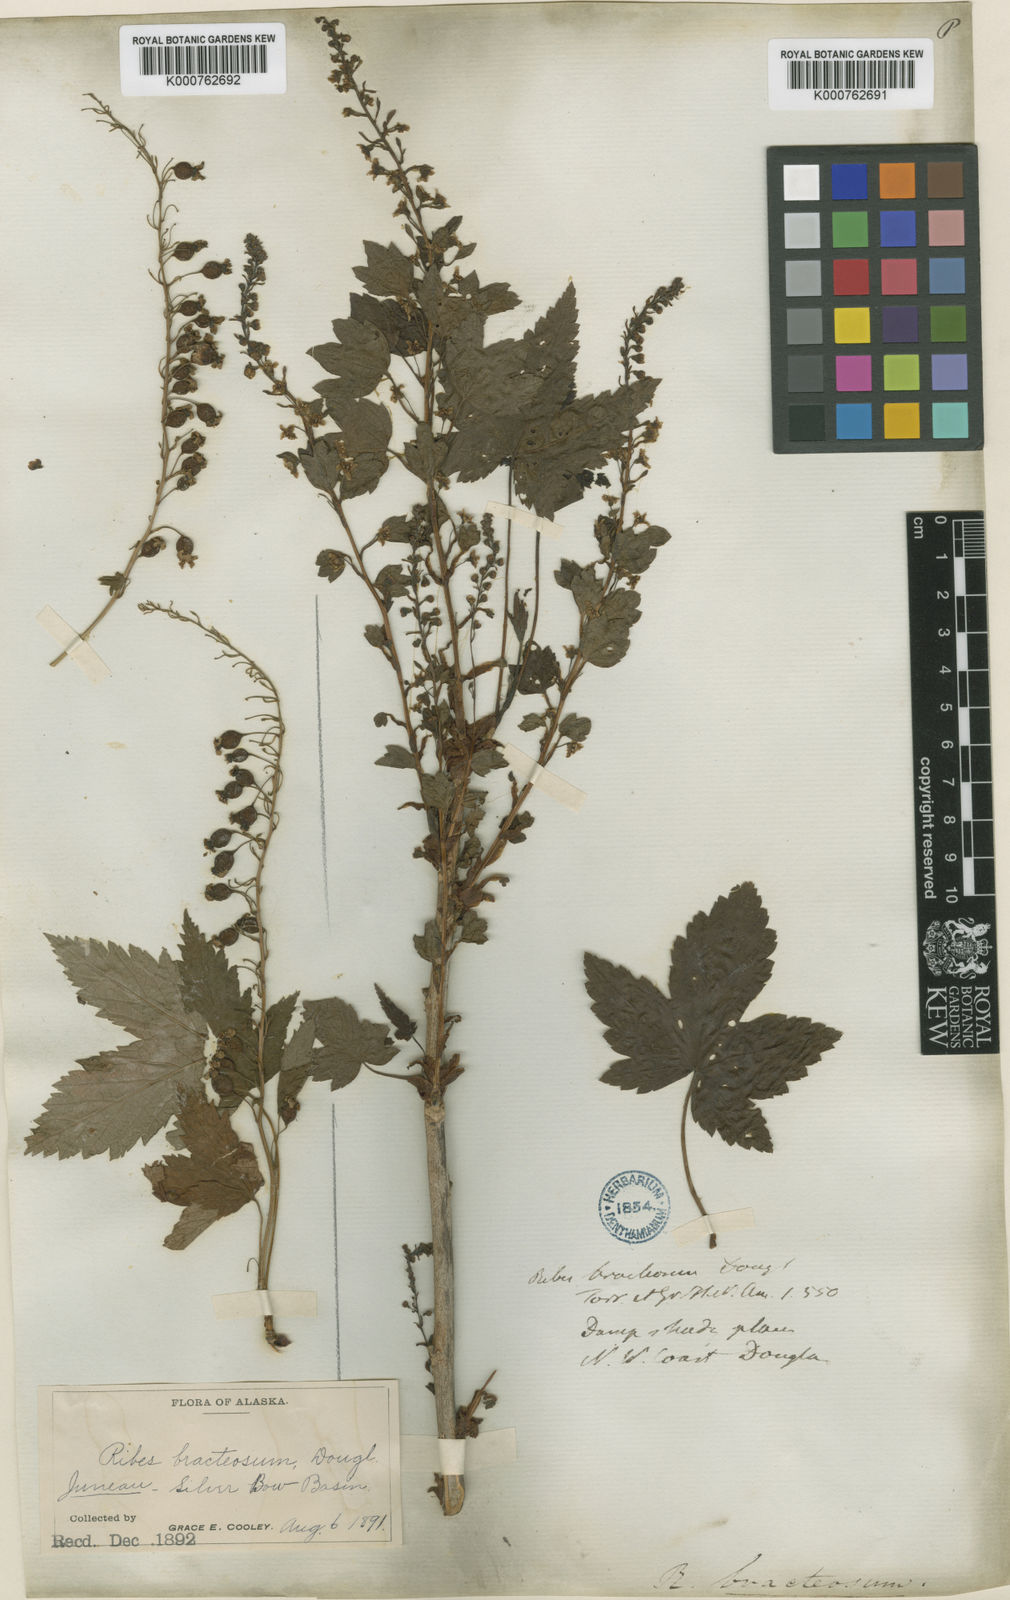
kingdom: Plantae
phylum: Tracheophyta
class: Magnoliopsida
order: Saxifragales
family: Grossulariaceae
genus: Ribes
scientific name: Ribes bracteosum
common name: California black currant
